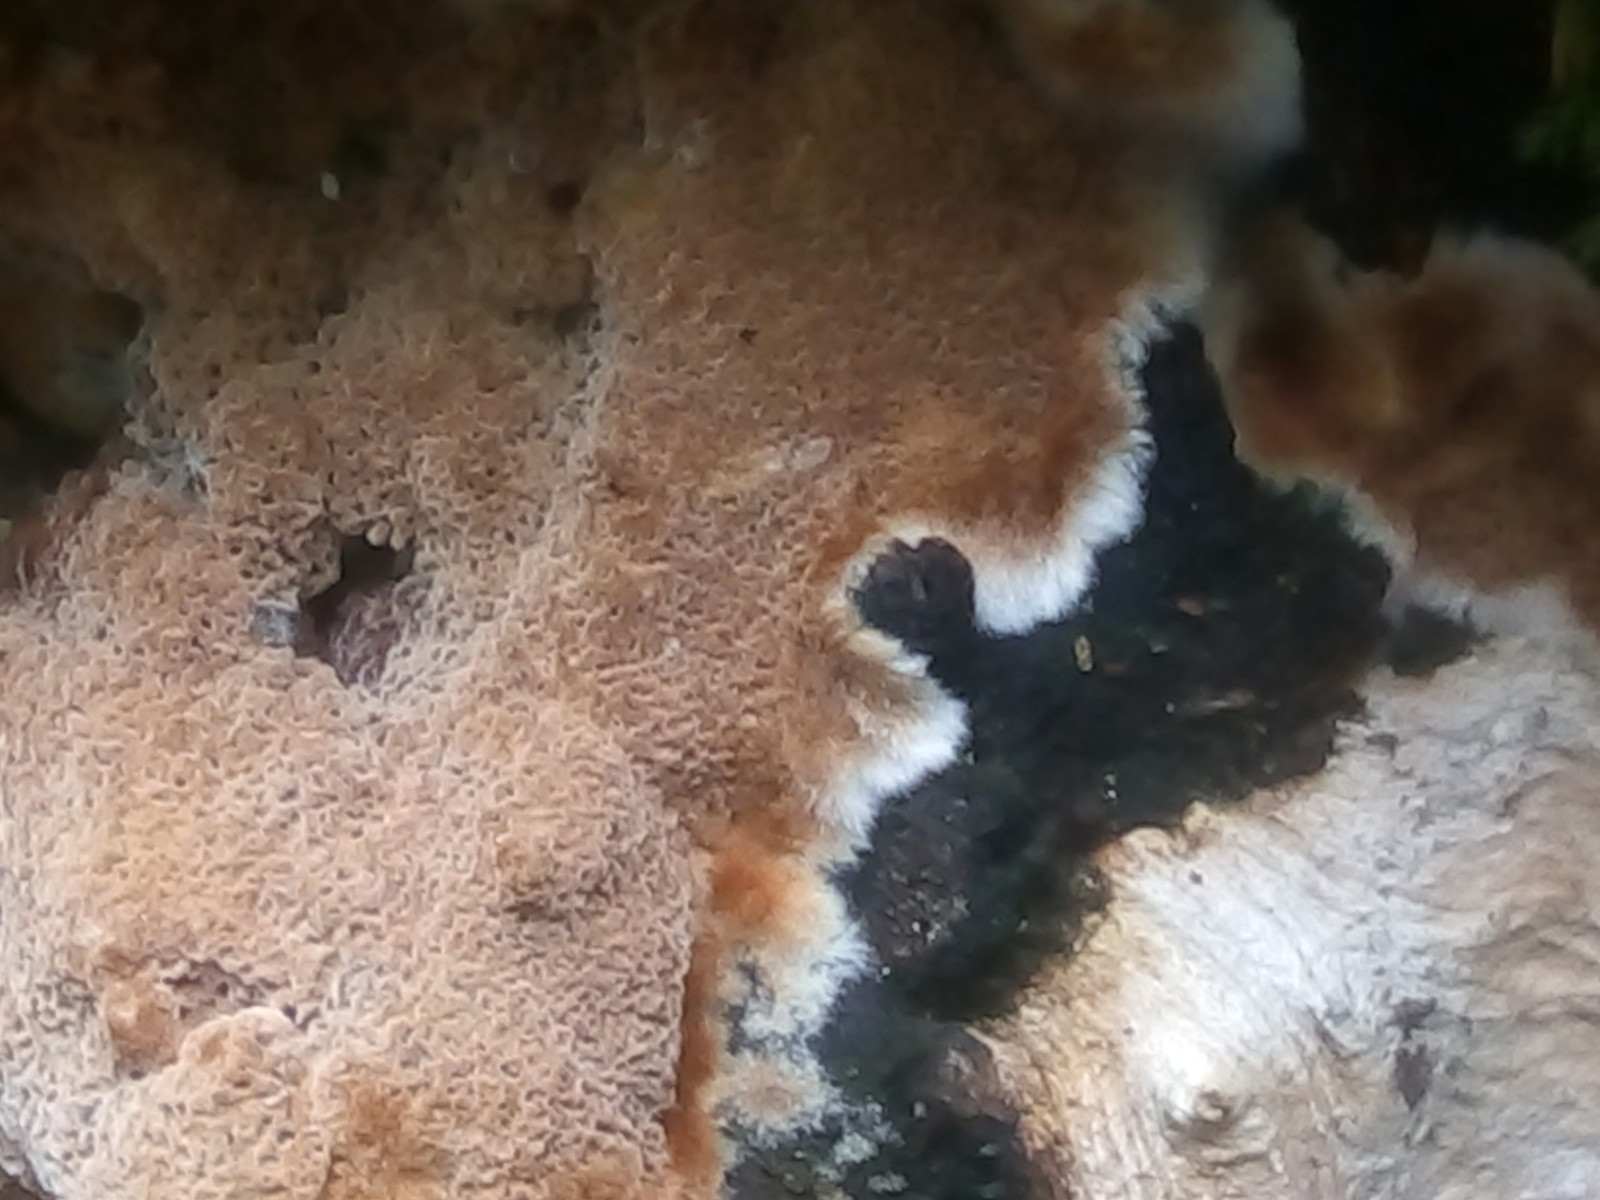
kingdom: Fungi
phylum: Basidiomycota
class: Agaricomycetes
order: Hymenochaetales
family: Hymenochaetaceae
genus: Fuscoporia
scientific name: Fuscoporia ferruginosa
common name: rustbrun ildporesvamp
